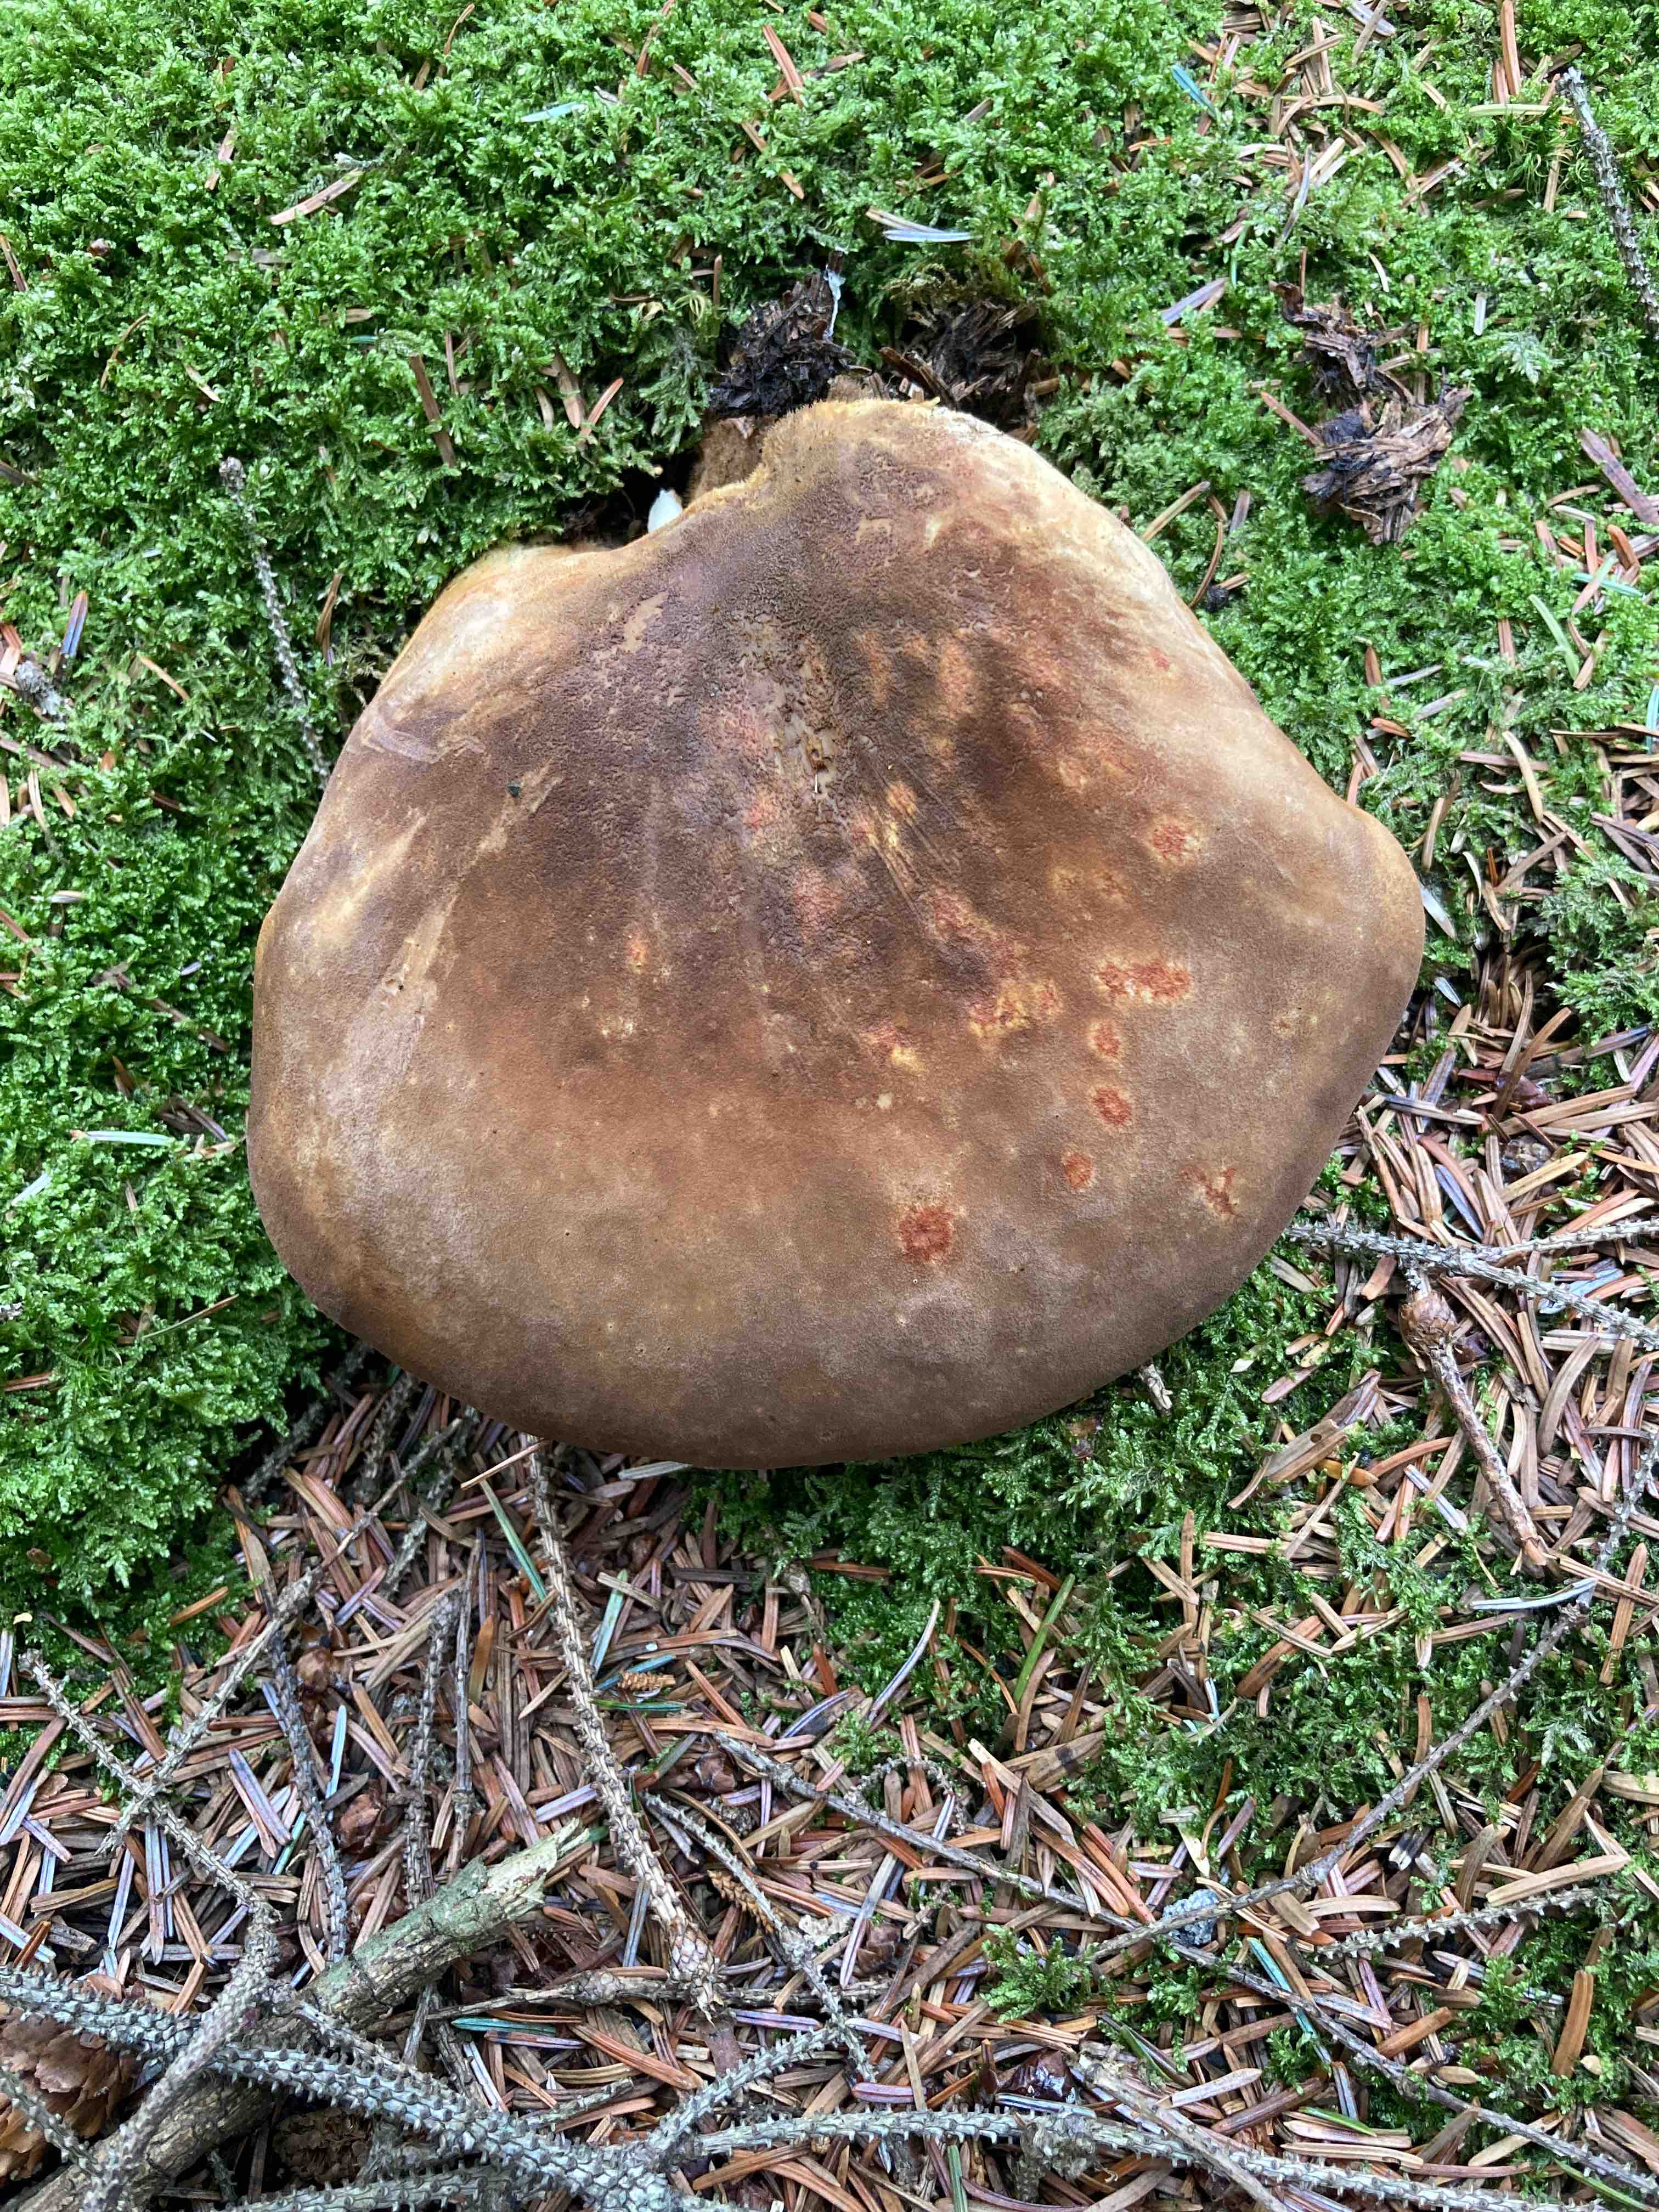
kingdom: Fungi
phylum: Basidiomycota
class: Agaricomycetes
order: Boletales
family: Tapinellaceae
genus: Tapinella
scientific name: Tapinella atrotomentosa
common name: sortfiltet viftesvamp
